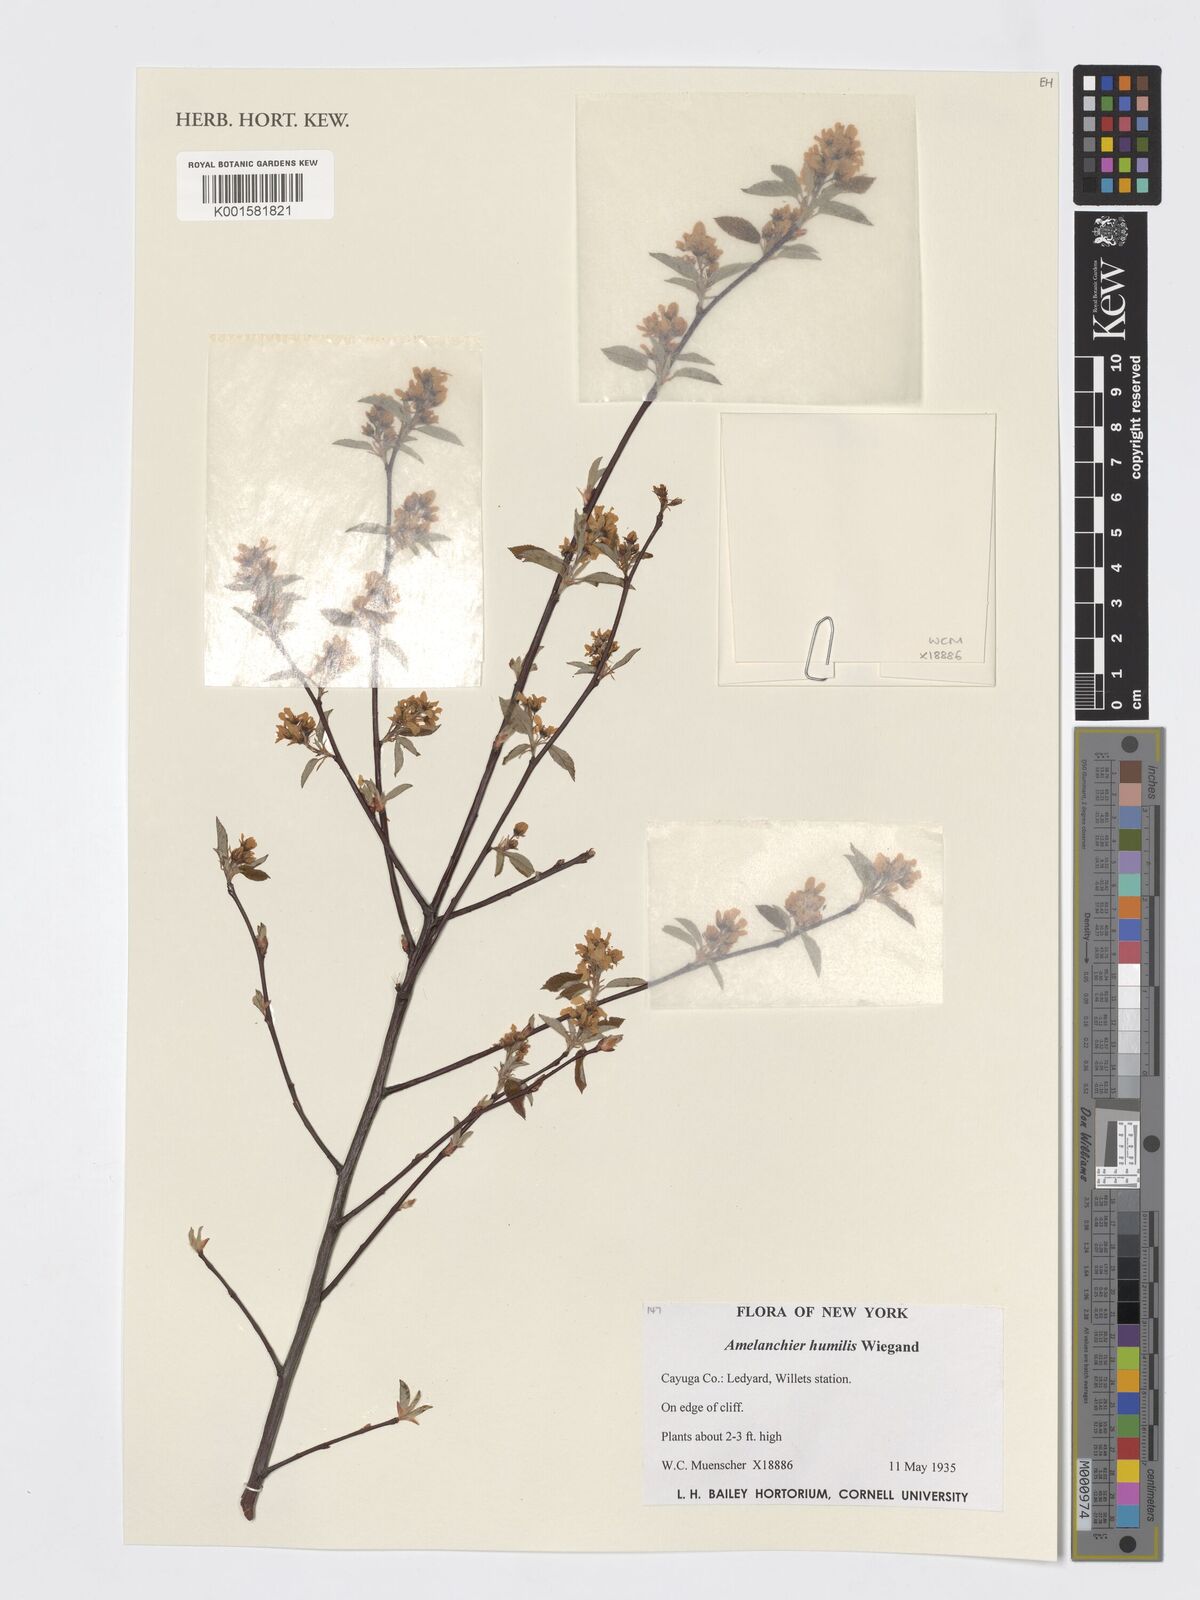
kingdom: Plantae
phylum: Tracheophyta
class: Magnoliopsida
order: Rosales
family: Rosaceae
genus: Amelanchier
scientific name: Amelanchier humilis
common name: Low juneberry
